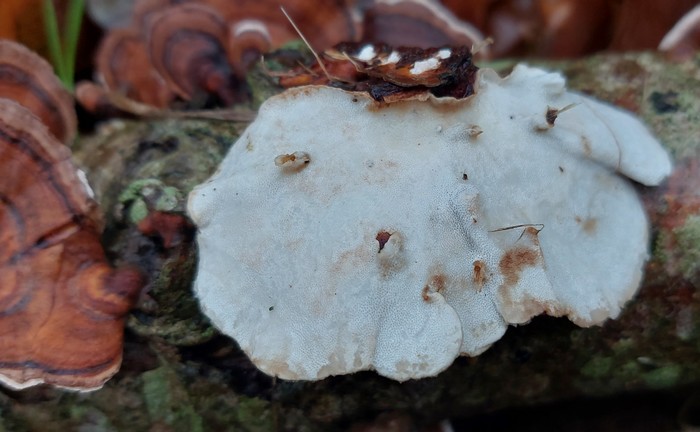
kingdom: Fungi
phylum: Basidiomycota
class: Agaricomycetes
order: Polyporales
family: Polyporaceae
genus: Trametes
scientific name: Trametes versicolor
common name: broget læderporesvamp
